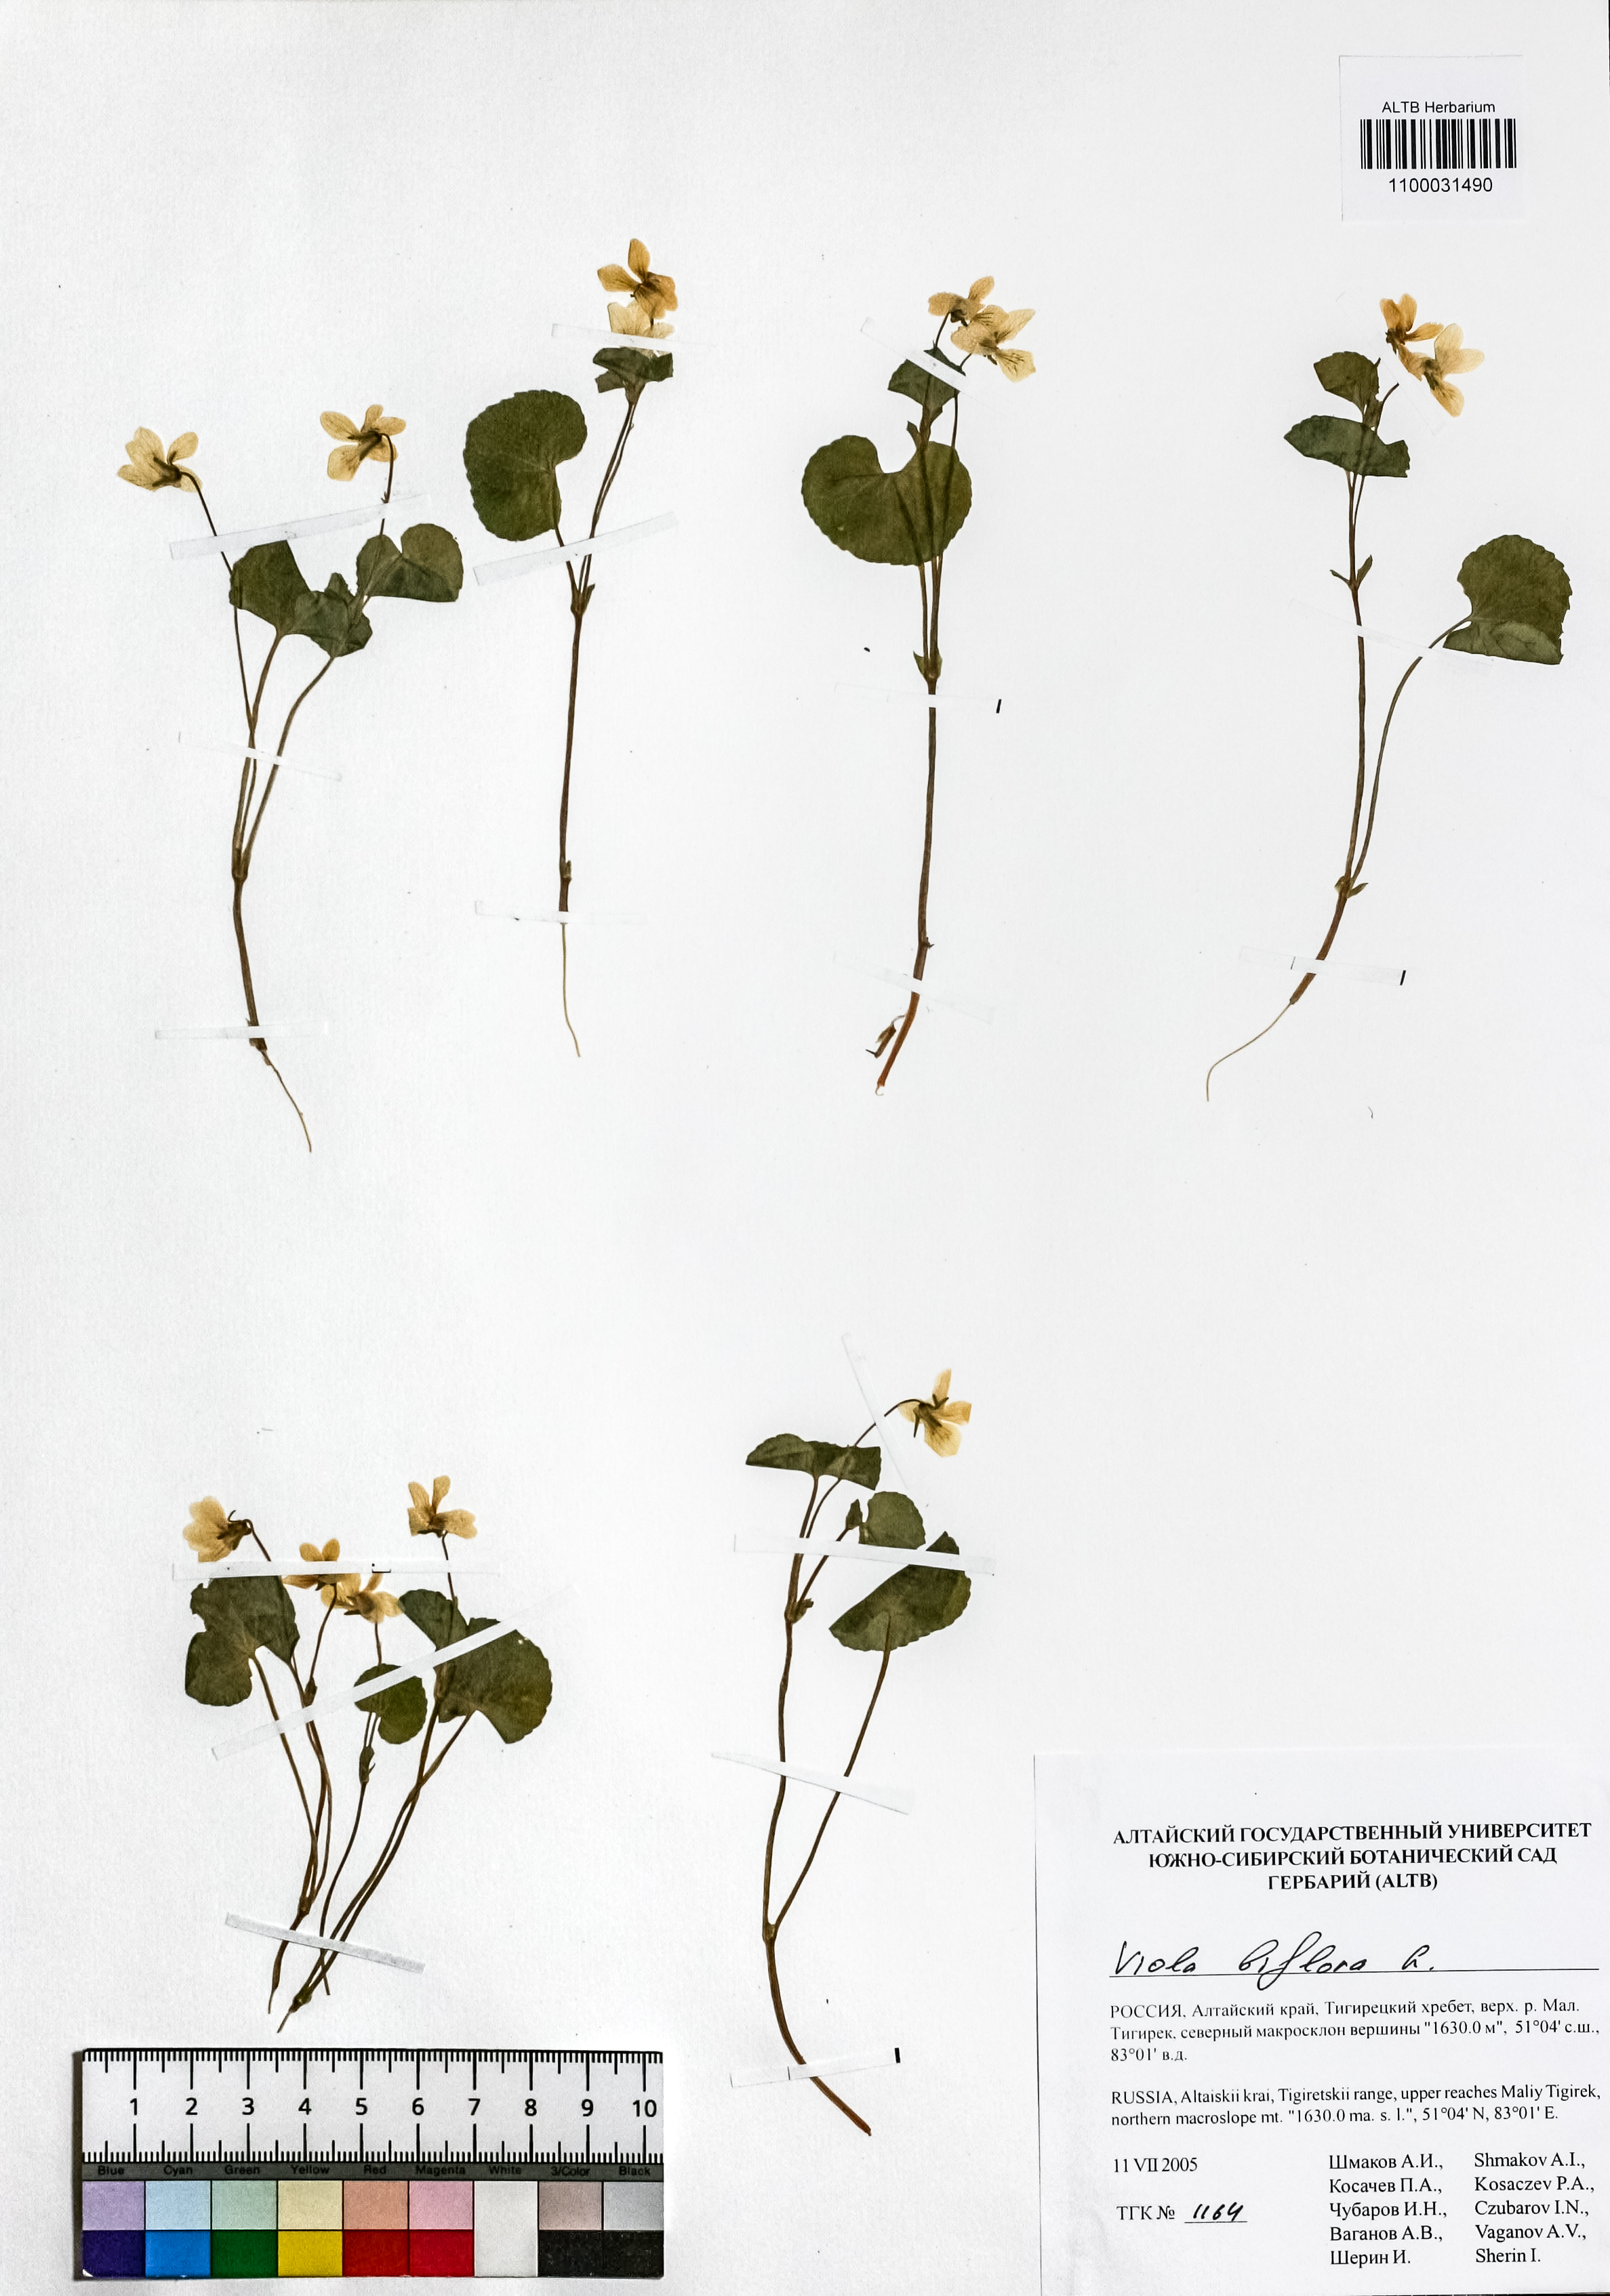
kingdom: Plantae
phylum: Tracheophyta
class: Magnoliopsida
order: Malpighiales
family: Violaceae
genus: Viola
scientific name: Viola biflora
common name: Alpine yellow violet
